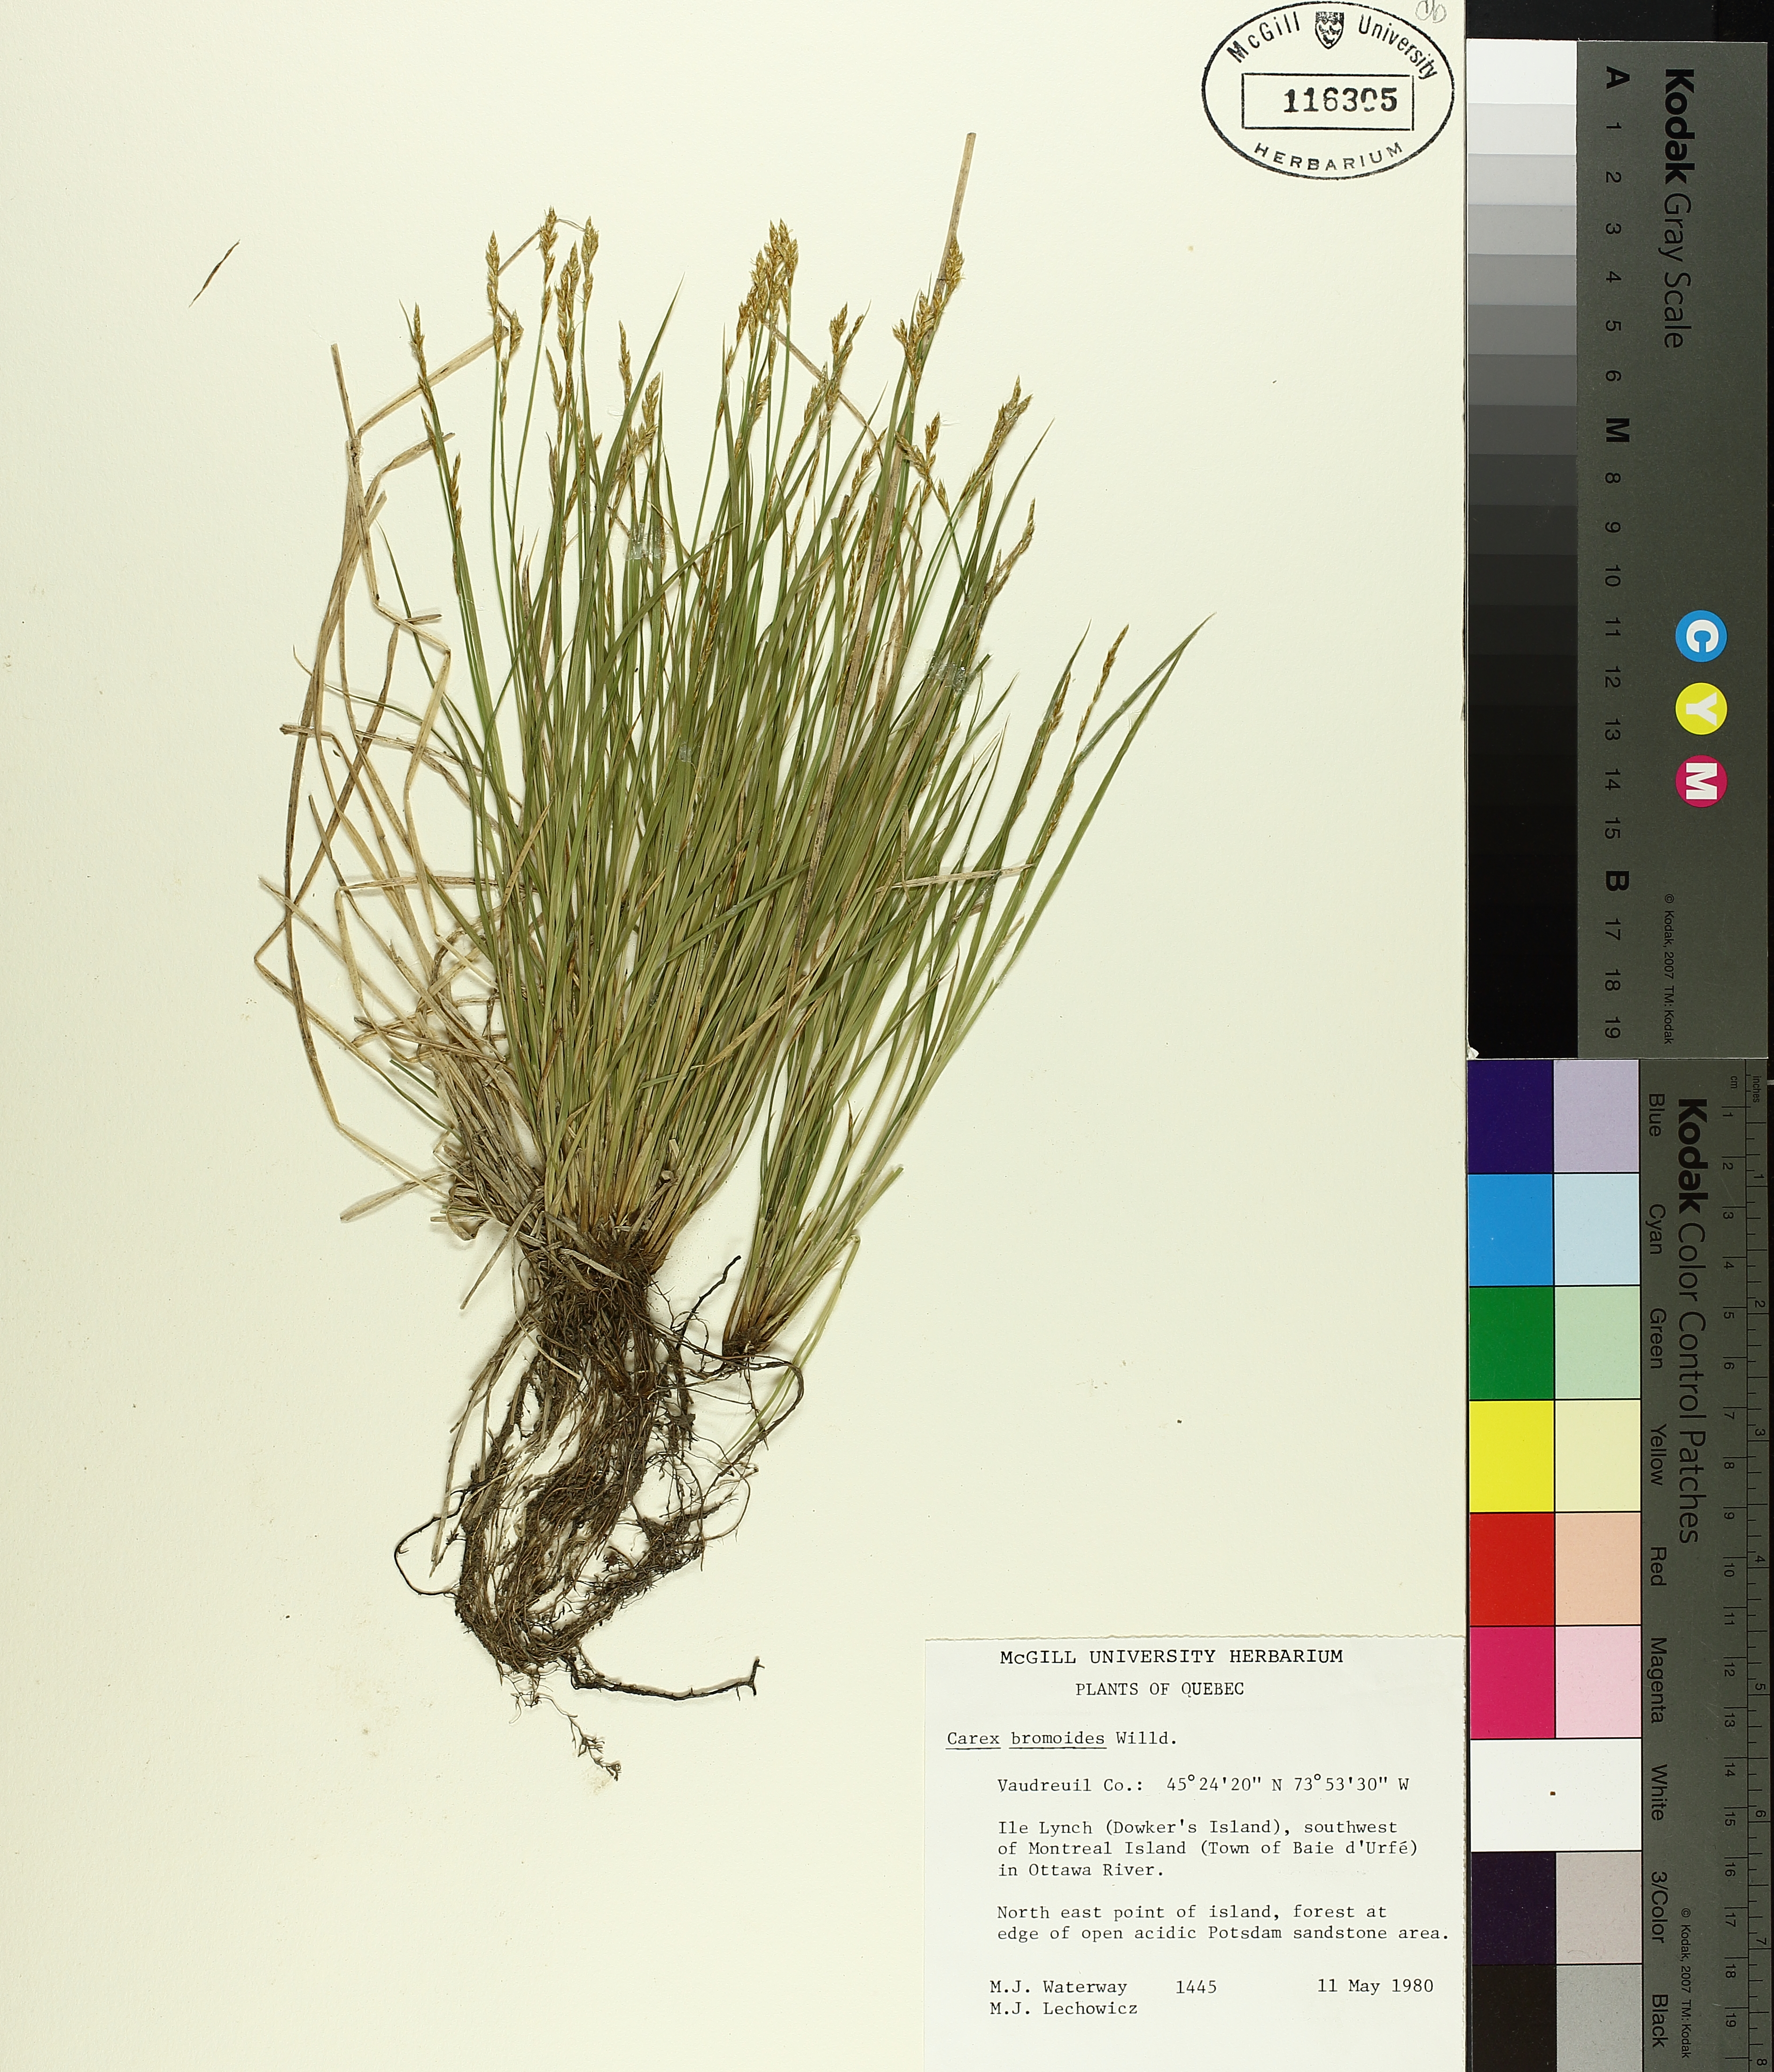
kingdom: Plantae
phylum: Tracheophyta
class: Liliopsida
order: Poales
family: Cyperaceae
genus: Carex
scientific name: Carex bromoides
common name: Brome hummock sedge
